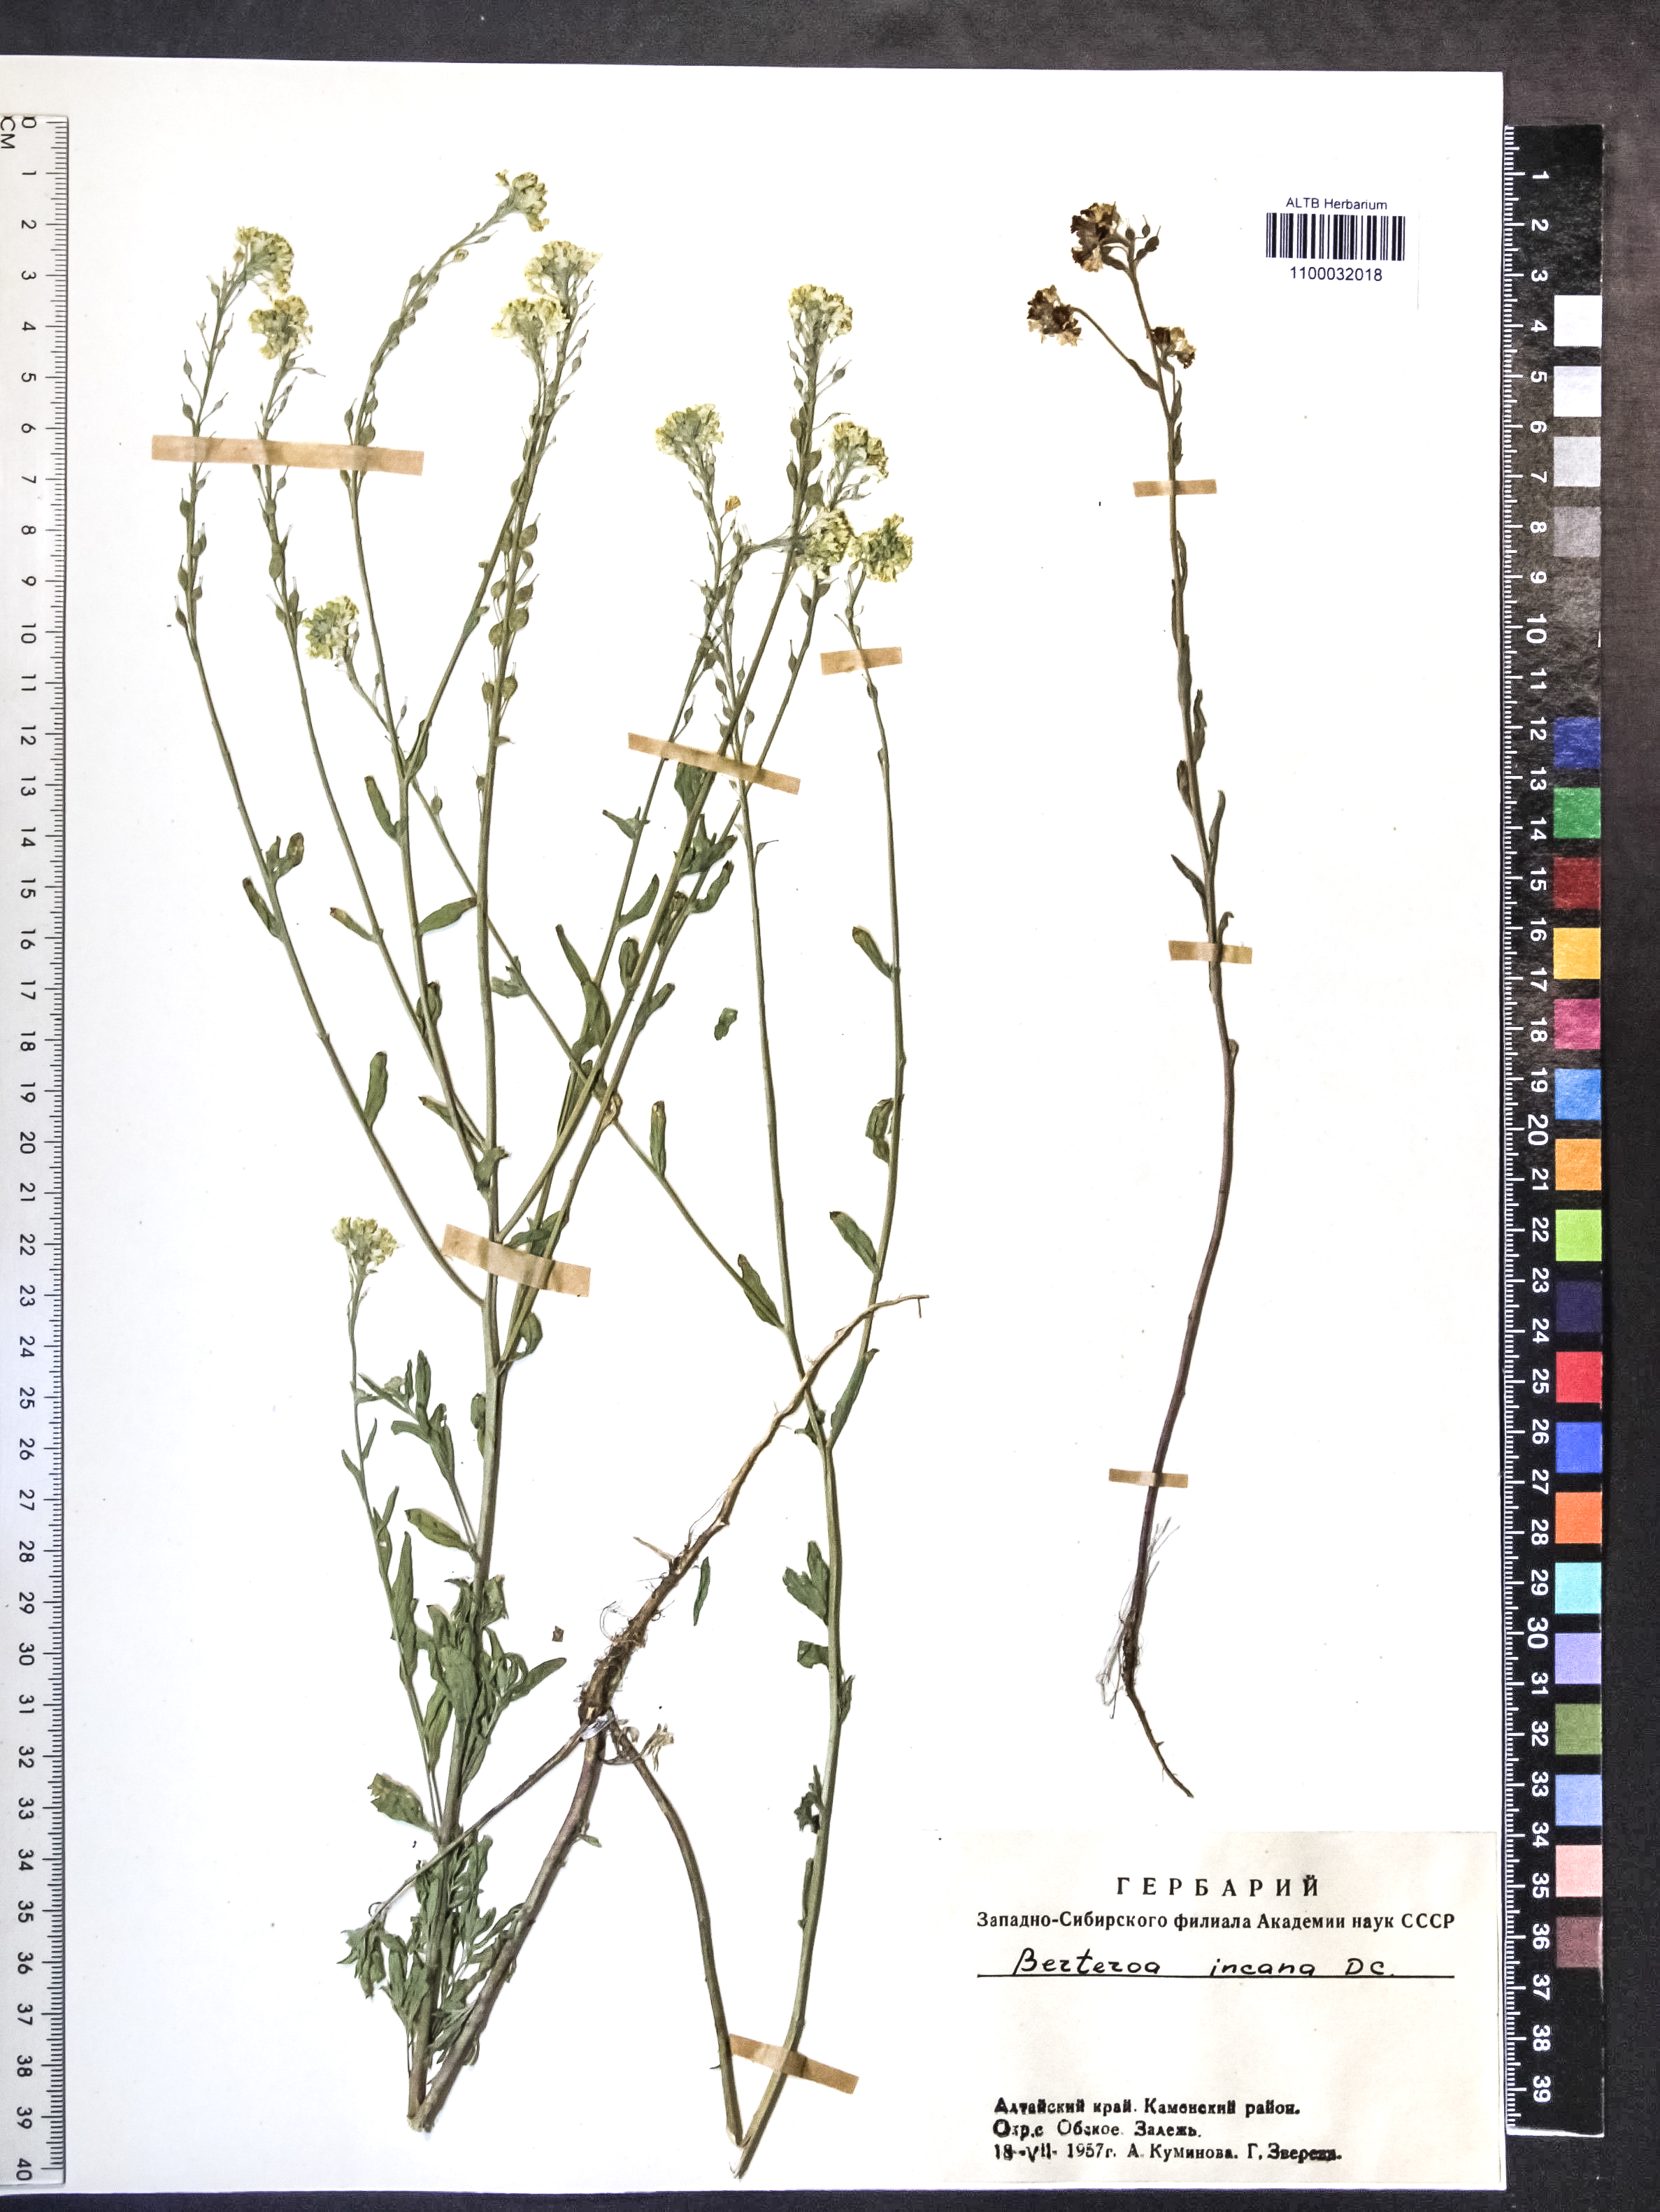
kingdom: Plantae
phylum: Tracheophyta
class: Magnoliopsida
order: Brassicales
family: Brassicaceae
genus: Berteroa
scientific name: Berteroa incana
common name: Hoary alison
